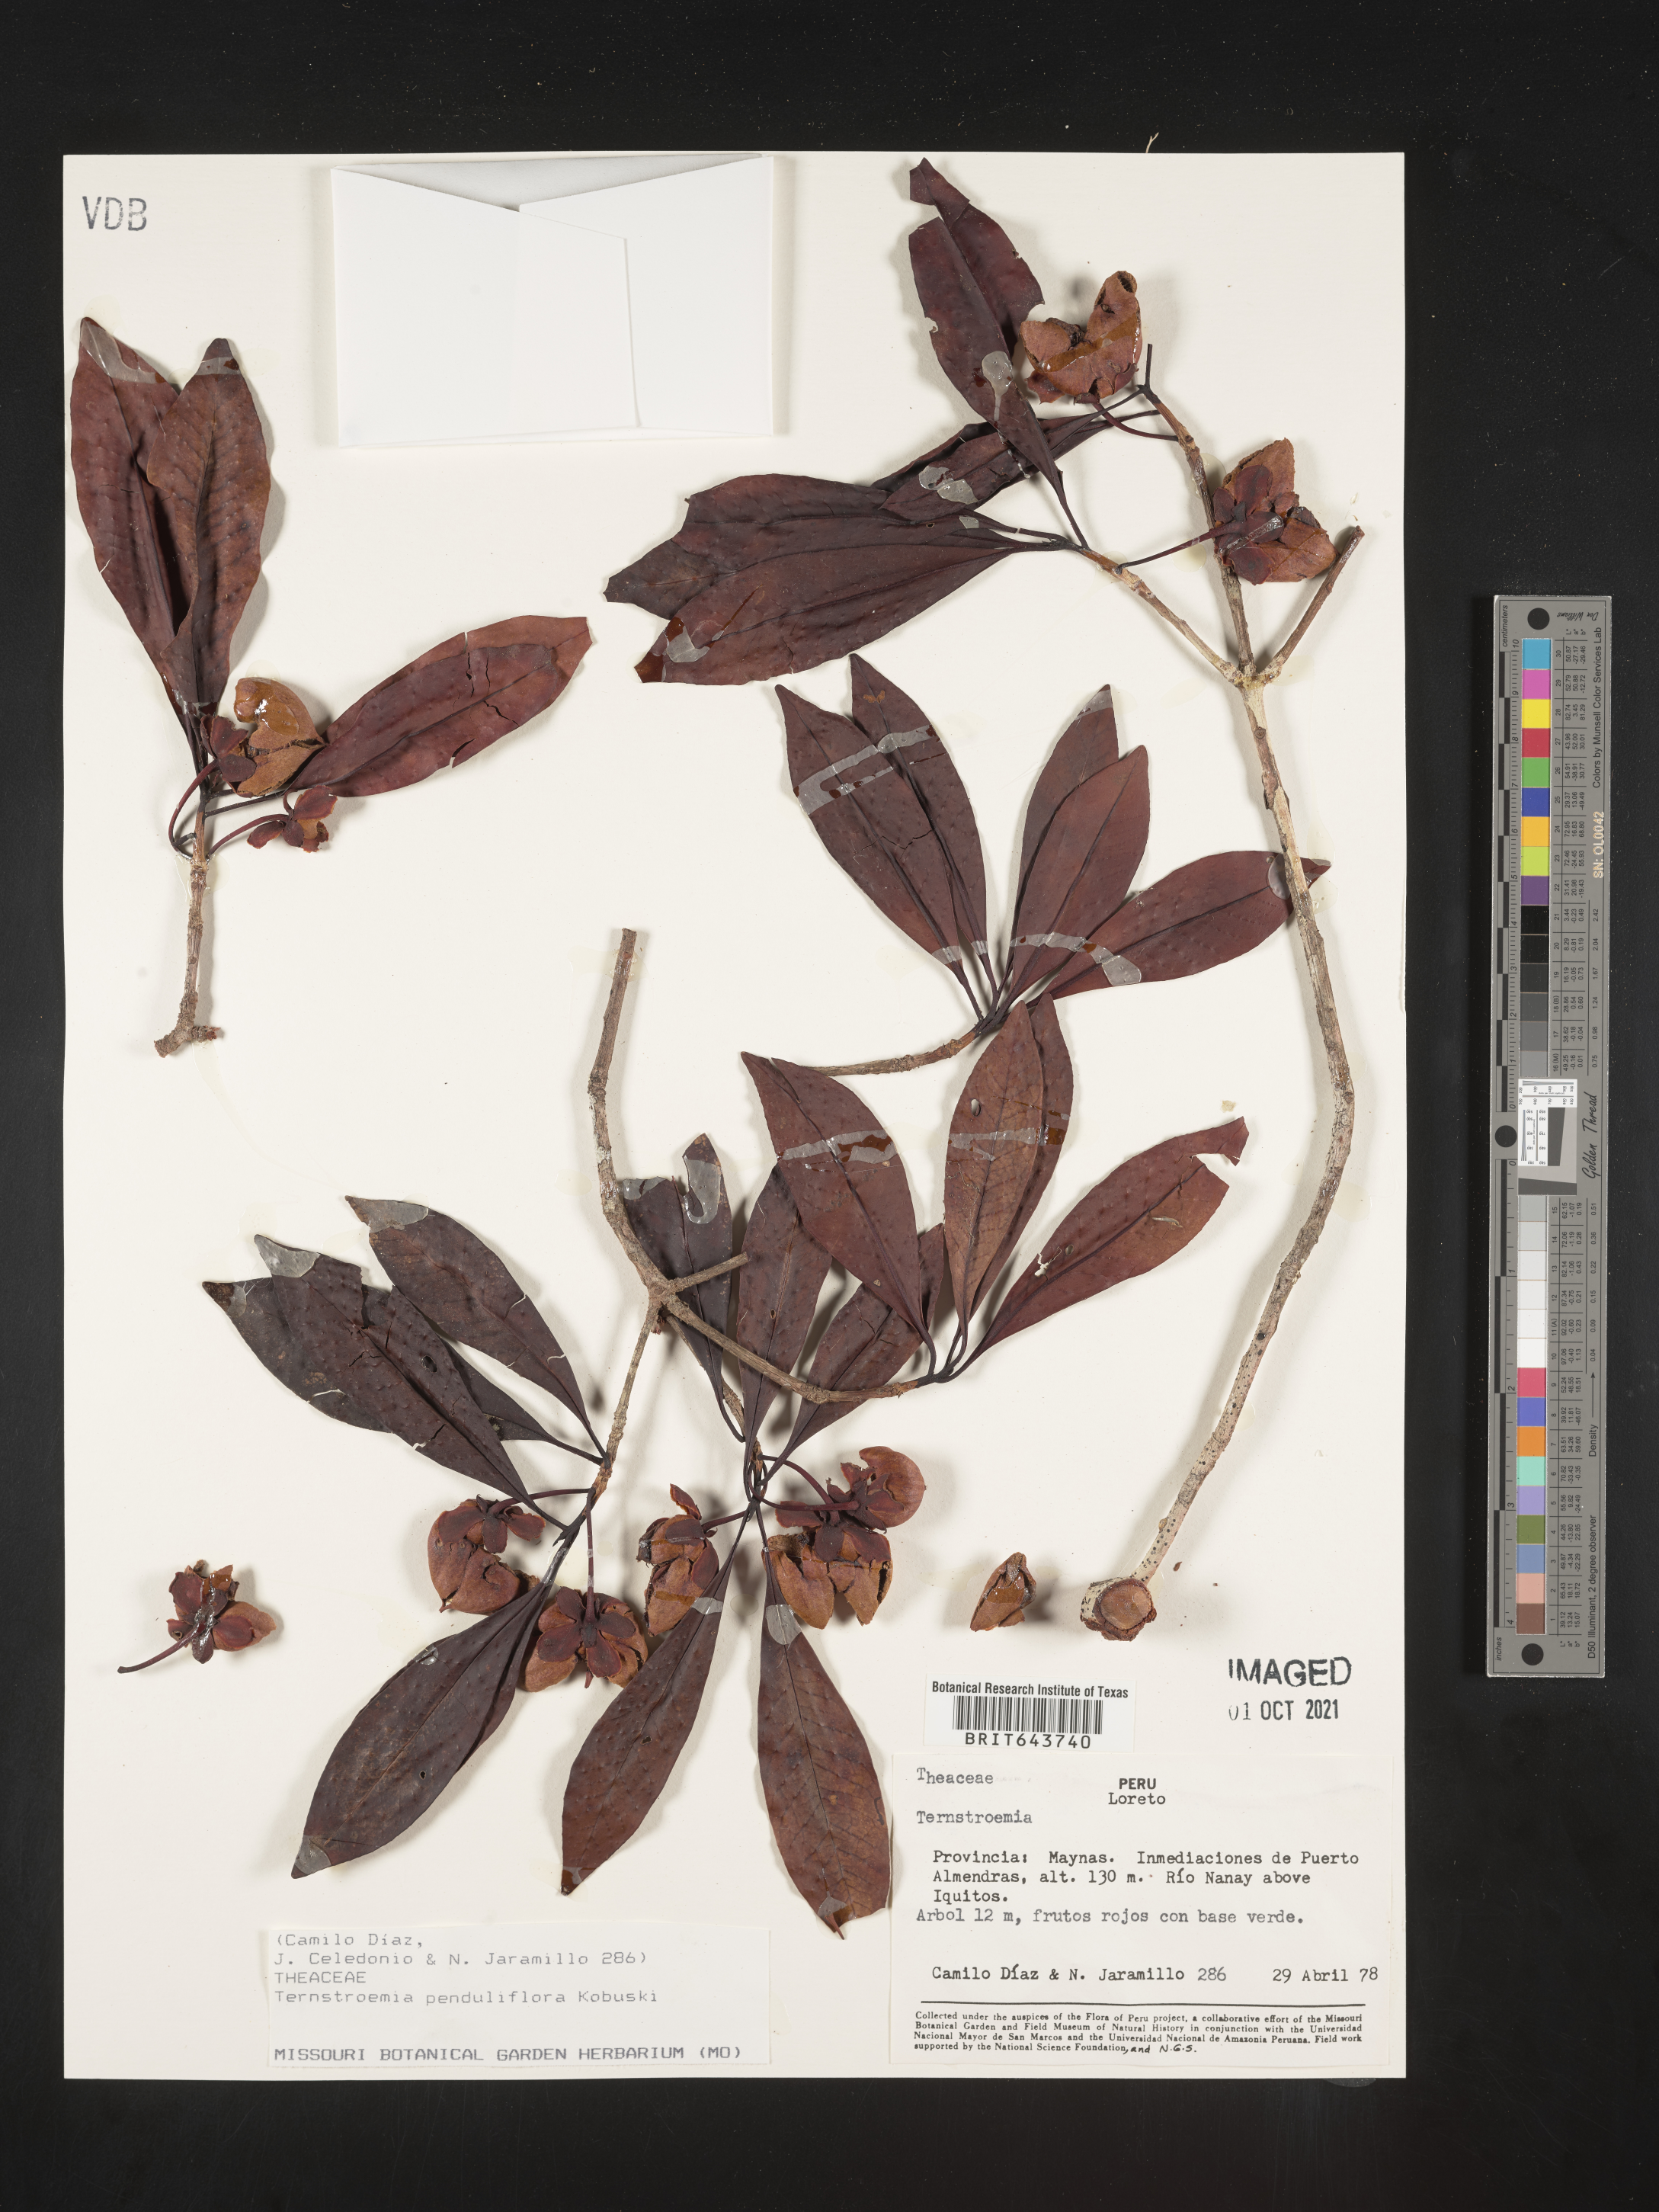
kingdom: Plantae
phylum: Tracheophyta
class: Magnoliopsida
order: Ericales
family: Pentaphylacaceae
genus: Ternstroemia
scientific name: Ternstroemia
